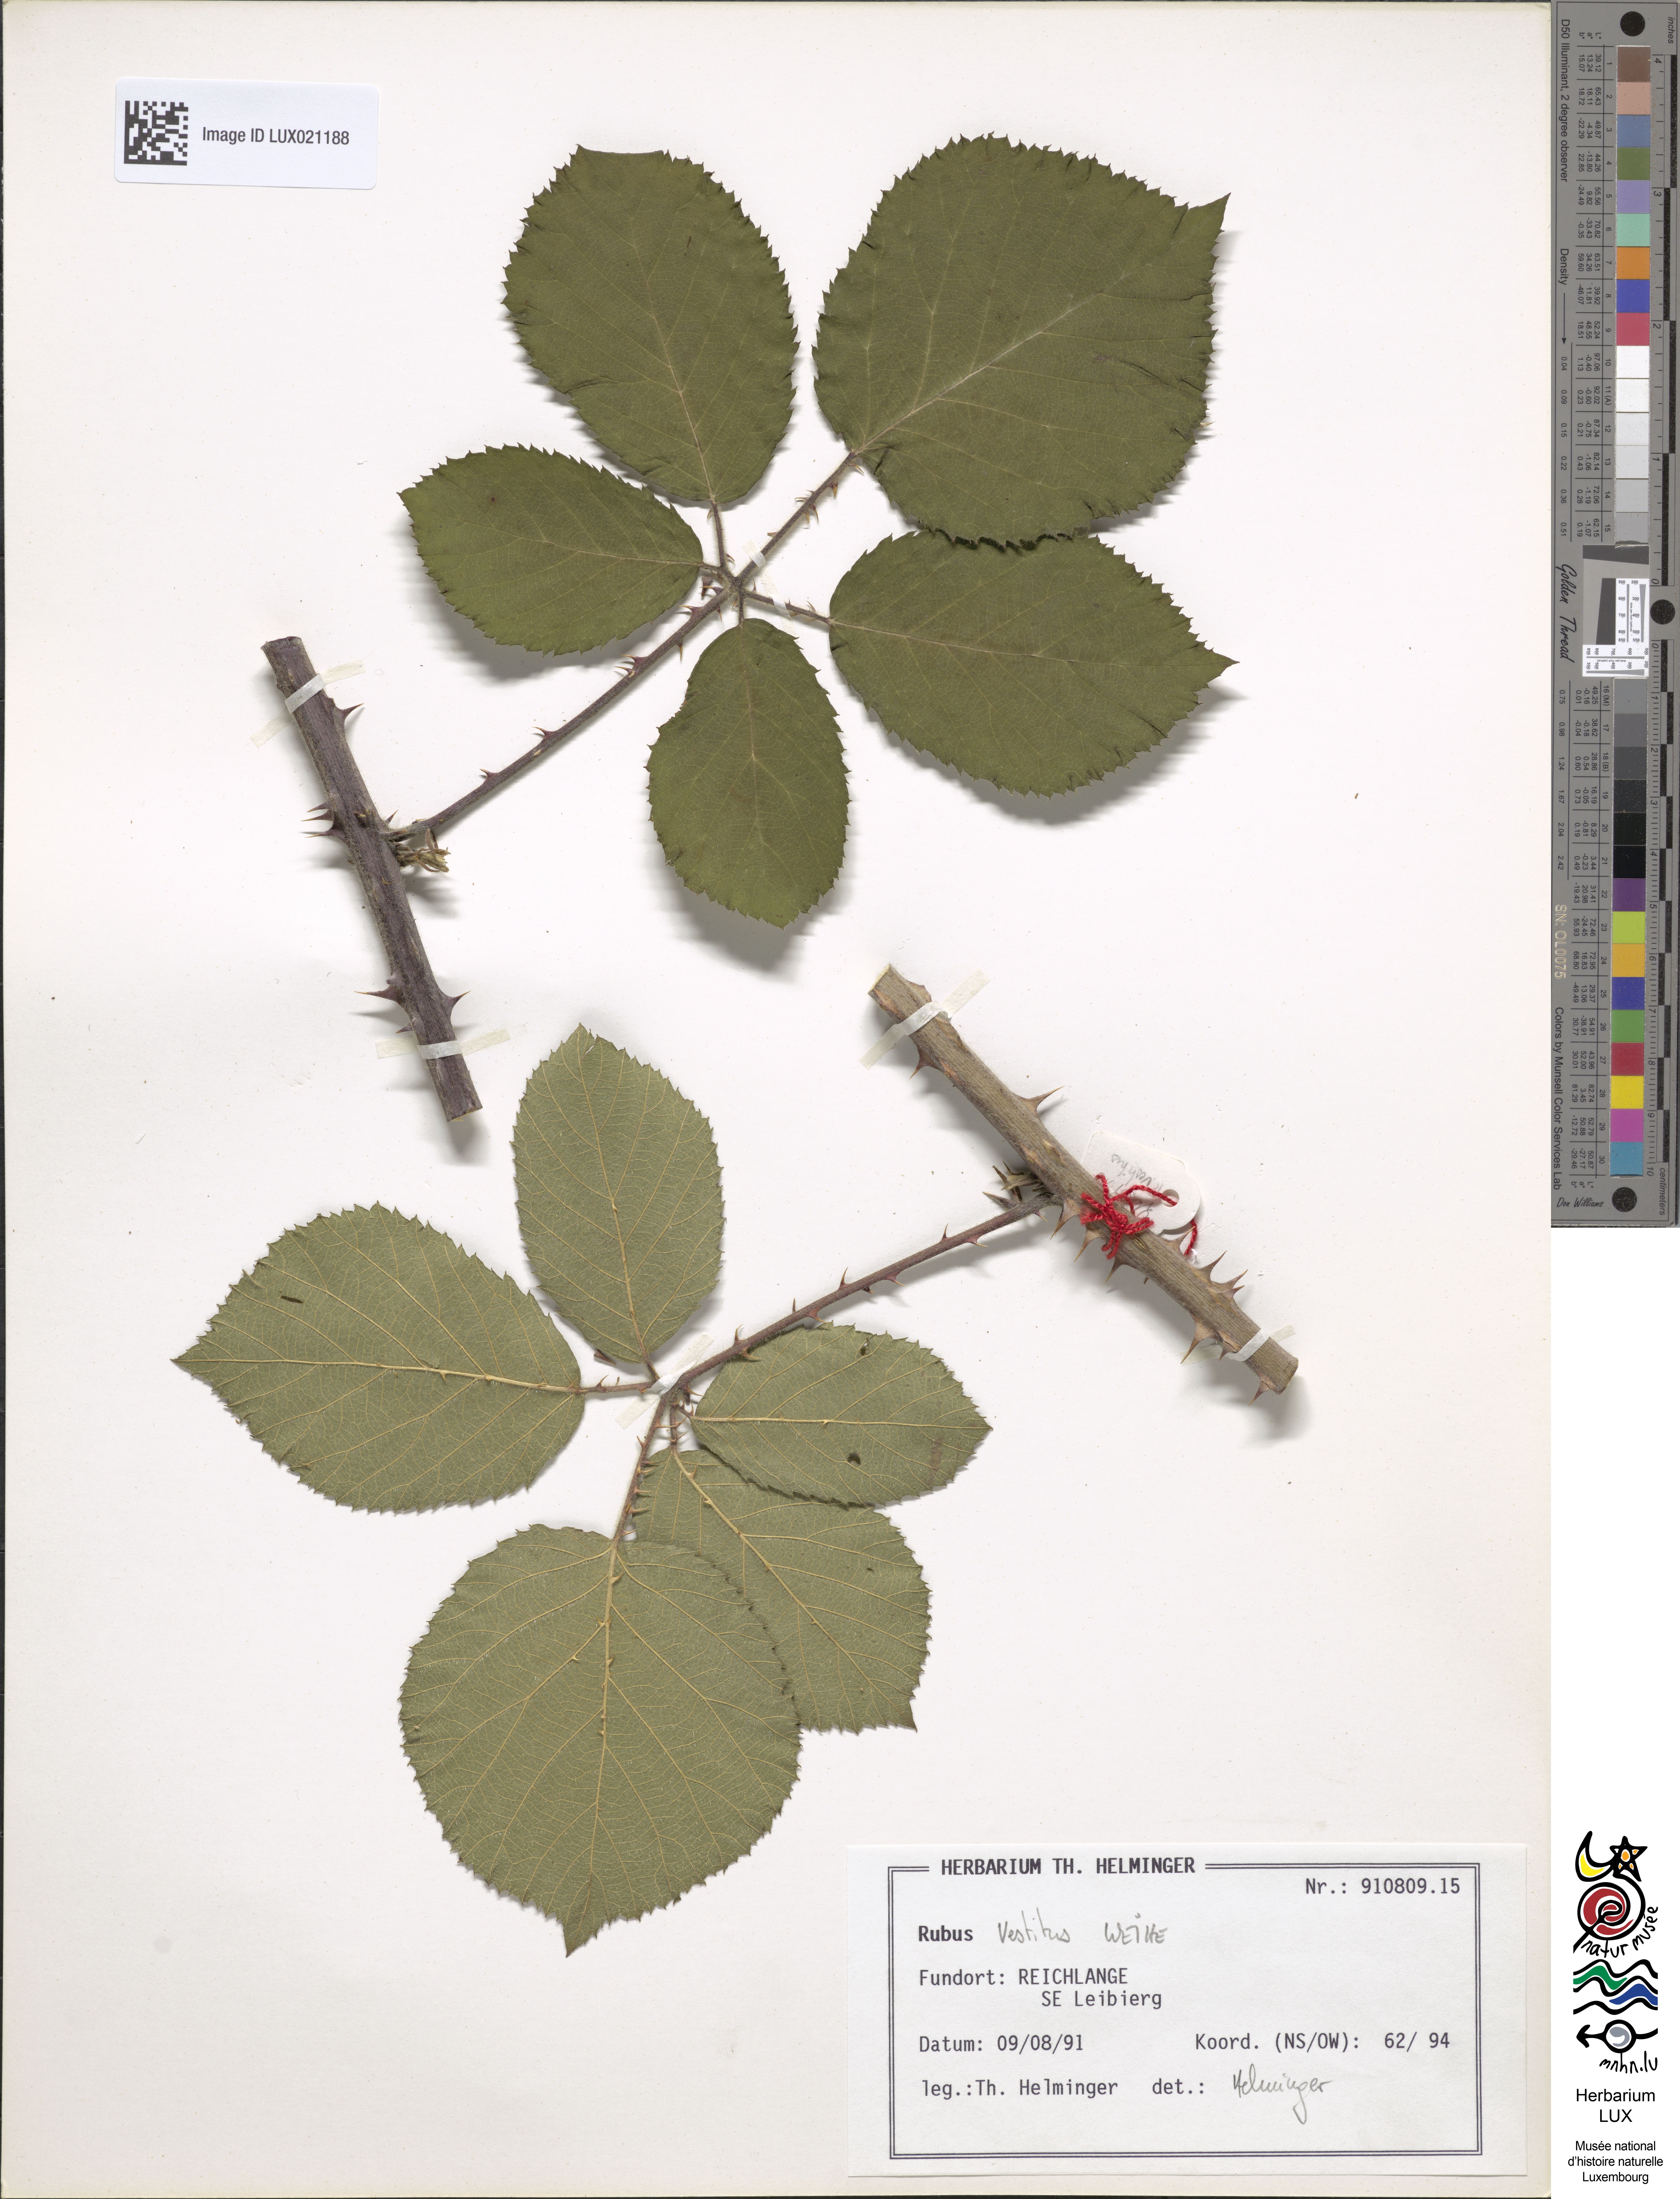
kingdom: Plantae
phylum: Tracheophyta
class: Magnoliopsida
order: Rosales
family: Rosaceae
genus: Rubus
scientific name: Rubus vestitus
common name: European blackberry
